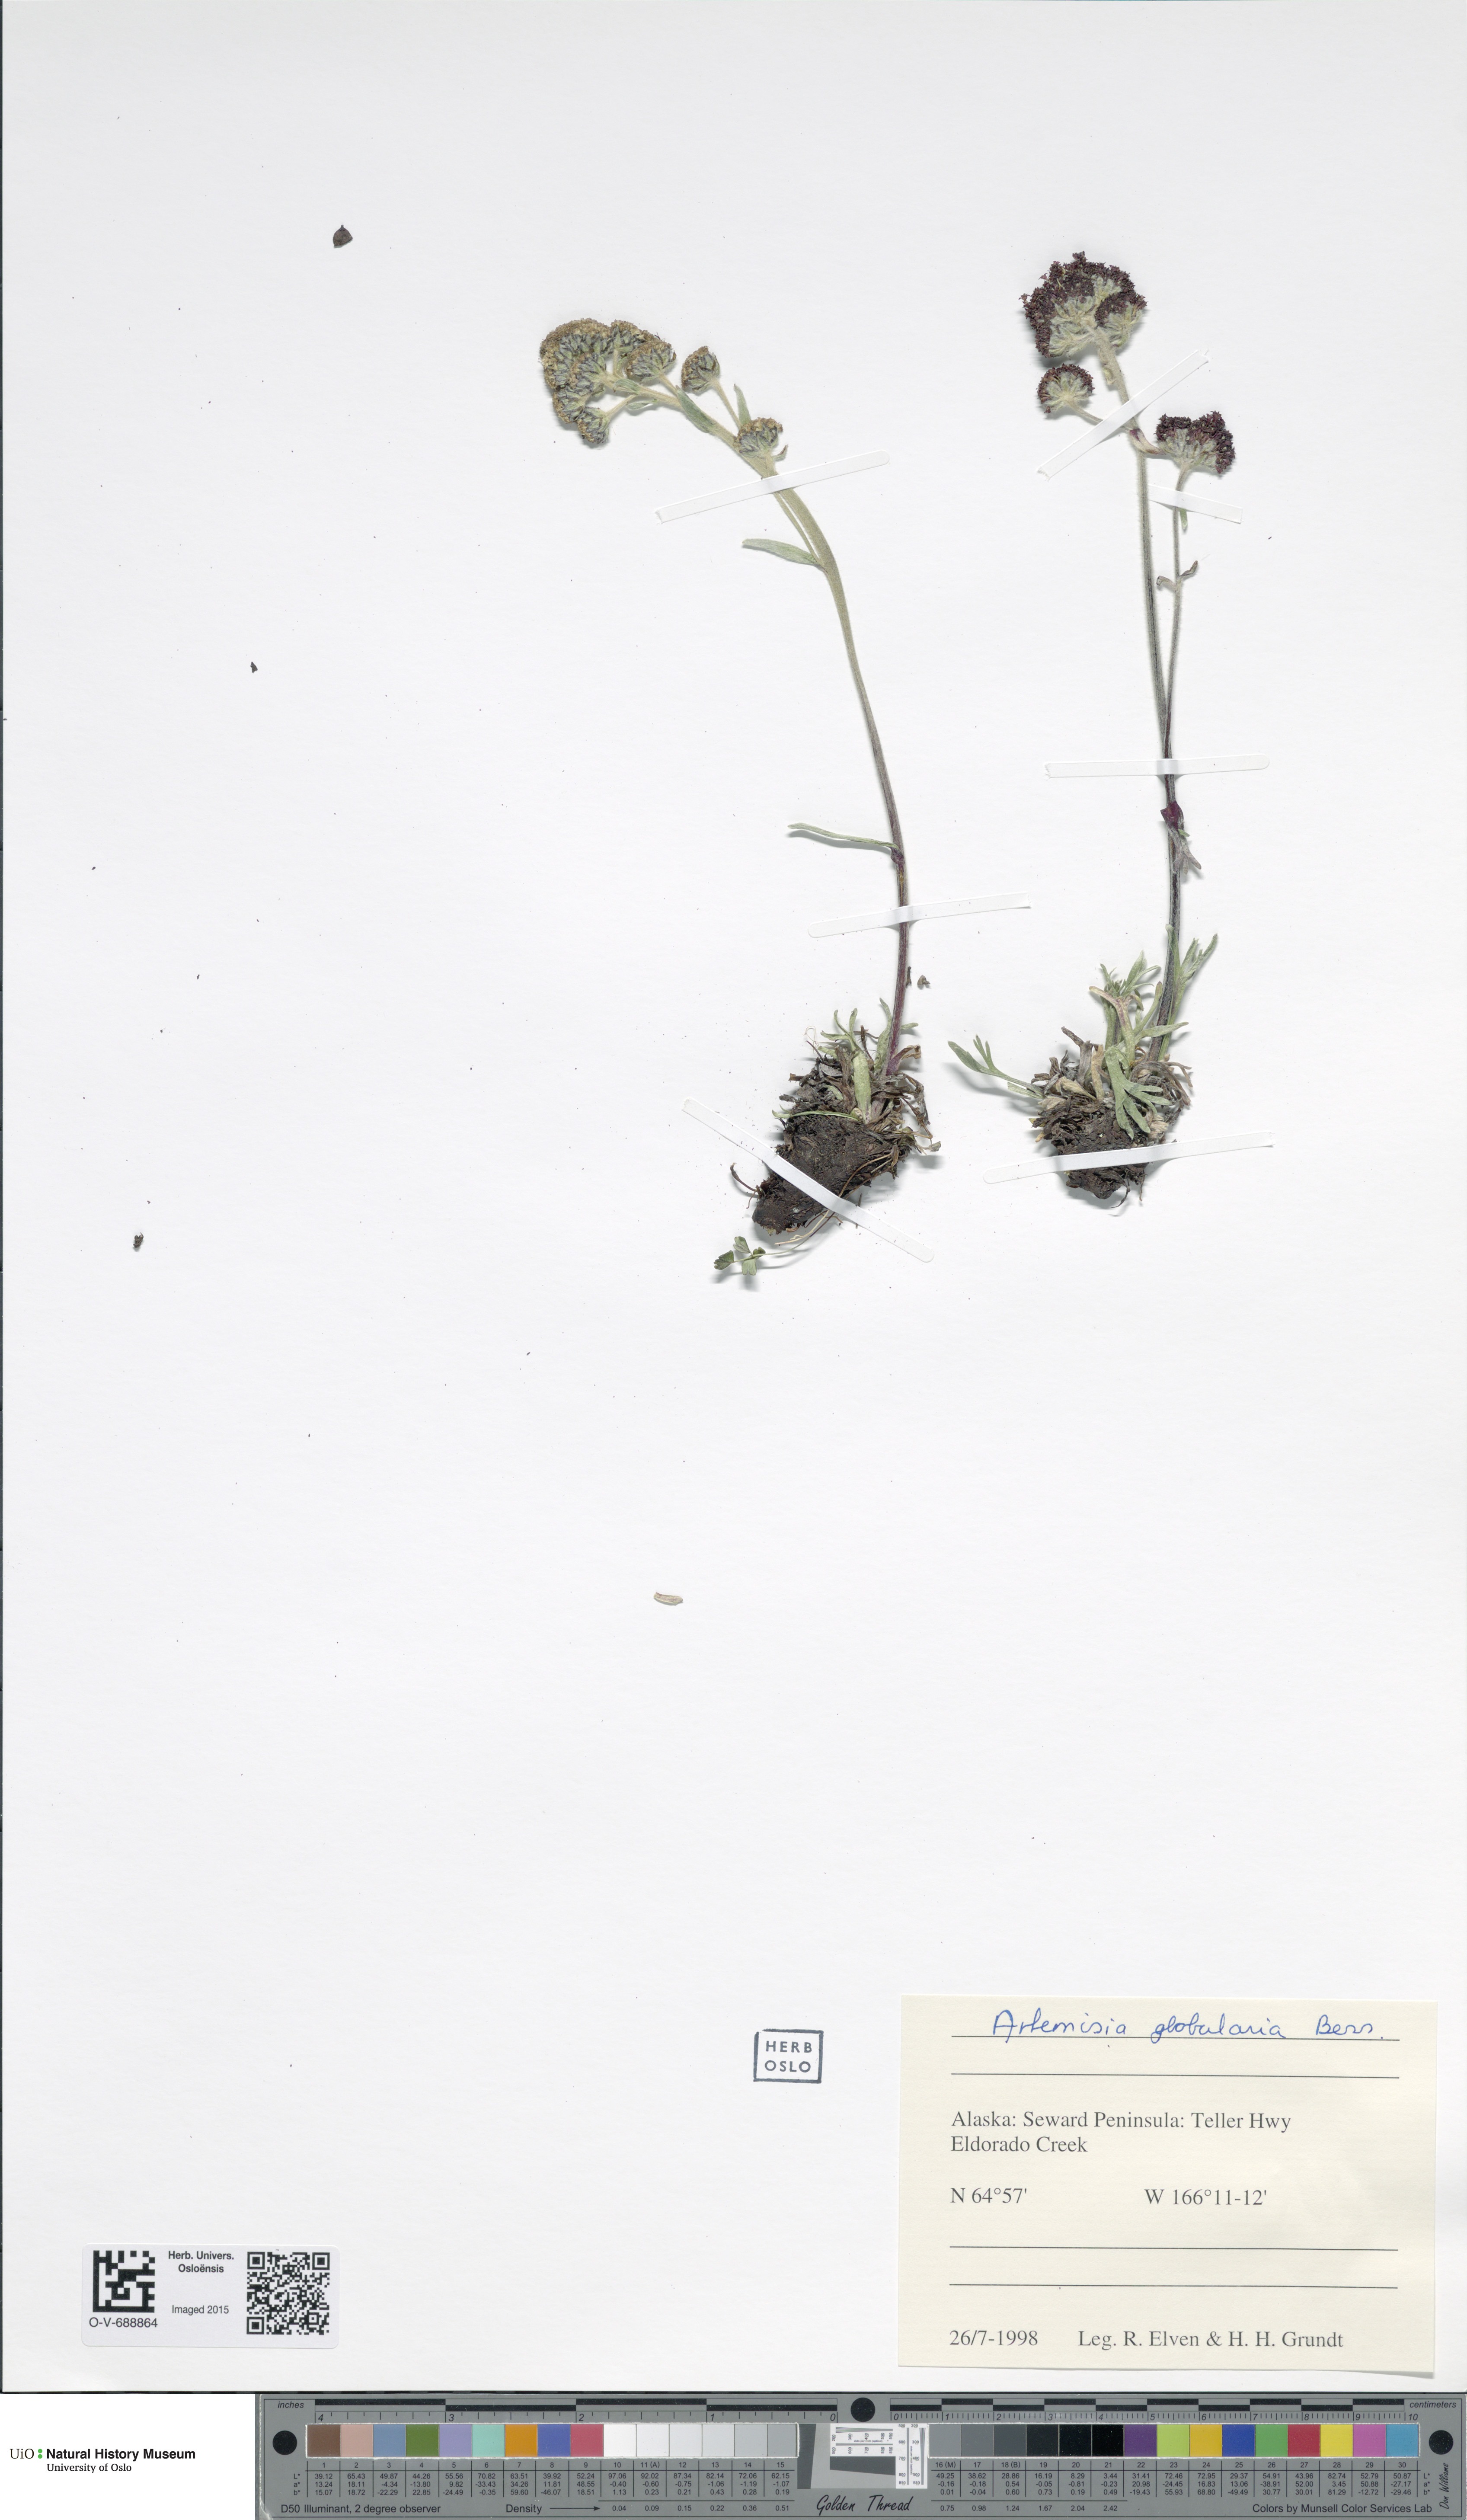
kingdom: Plantae
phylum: Tracheophyta
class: Magnoliopsida
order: Asterales
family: Asteraceae
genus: Artemisia
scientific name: Artemisia globularia
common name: Purple wormwood
